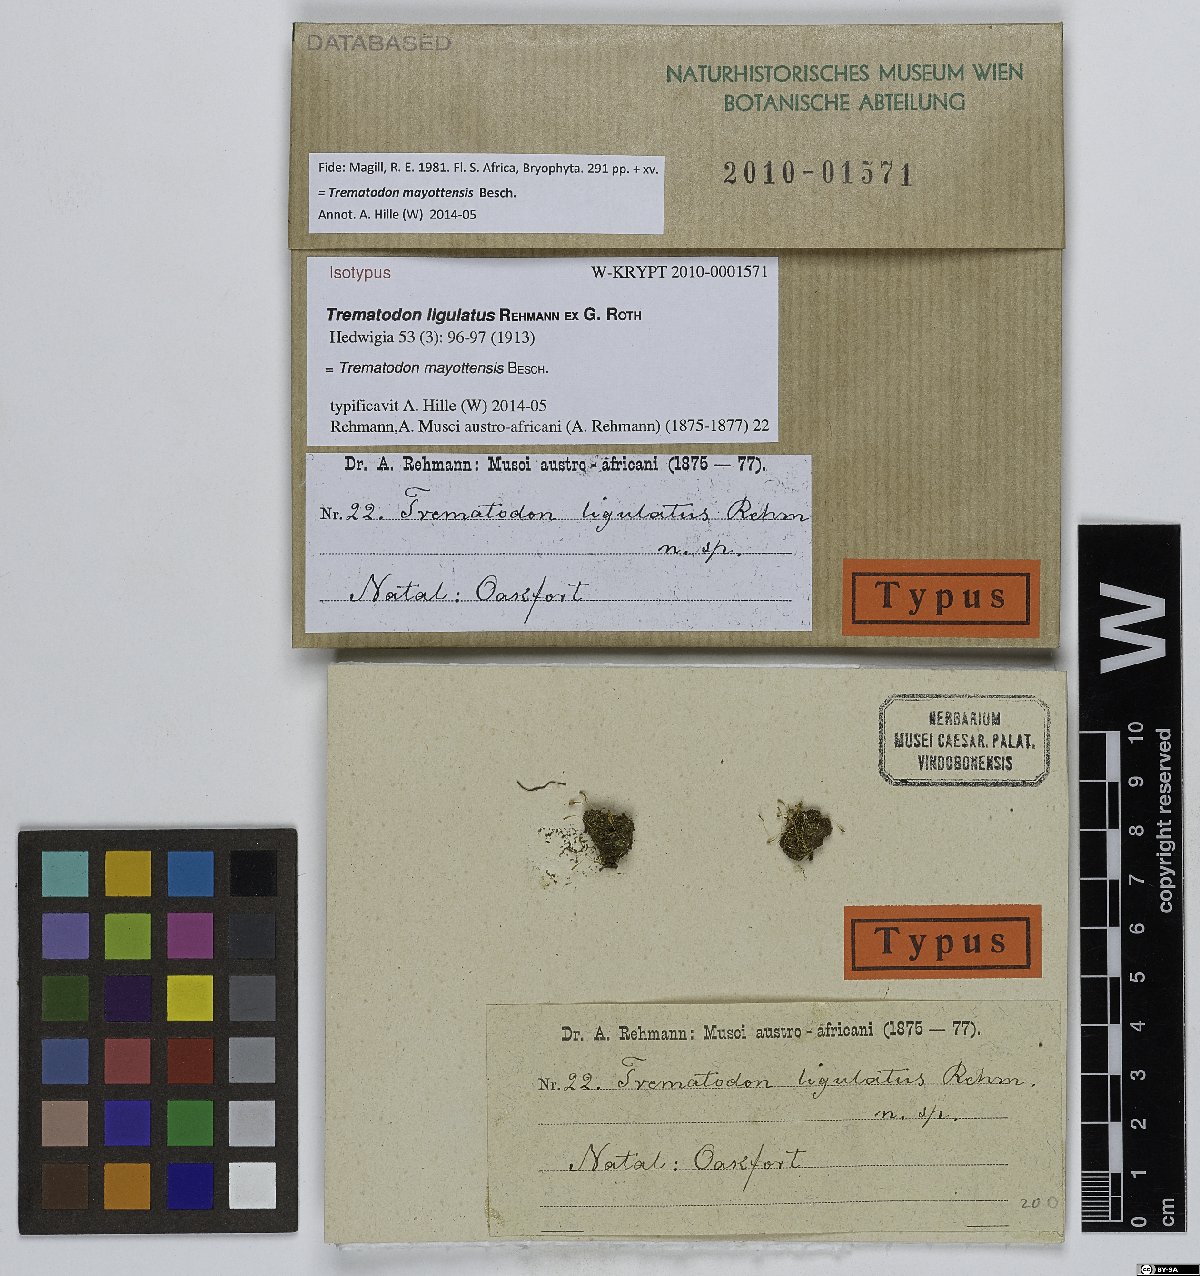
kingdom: Plantae
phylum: Bryophyta
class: Bryopsida
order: Dicranales
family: Bruchiaceae
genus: Trematodon
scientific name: Trematodon mayottensis
